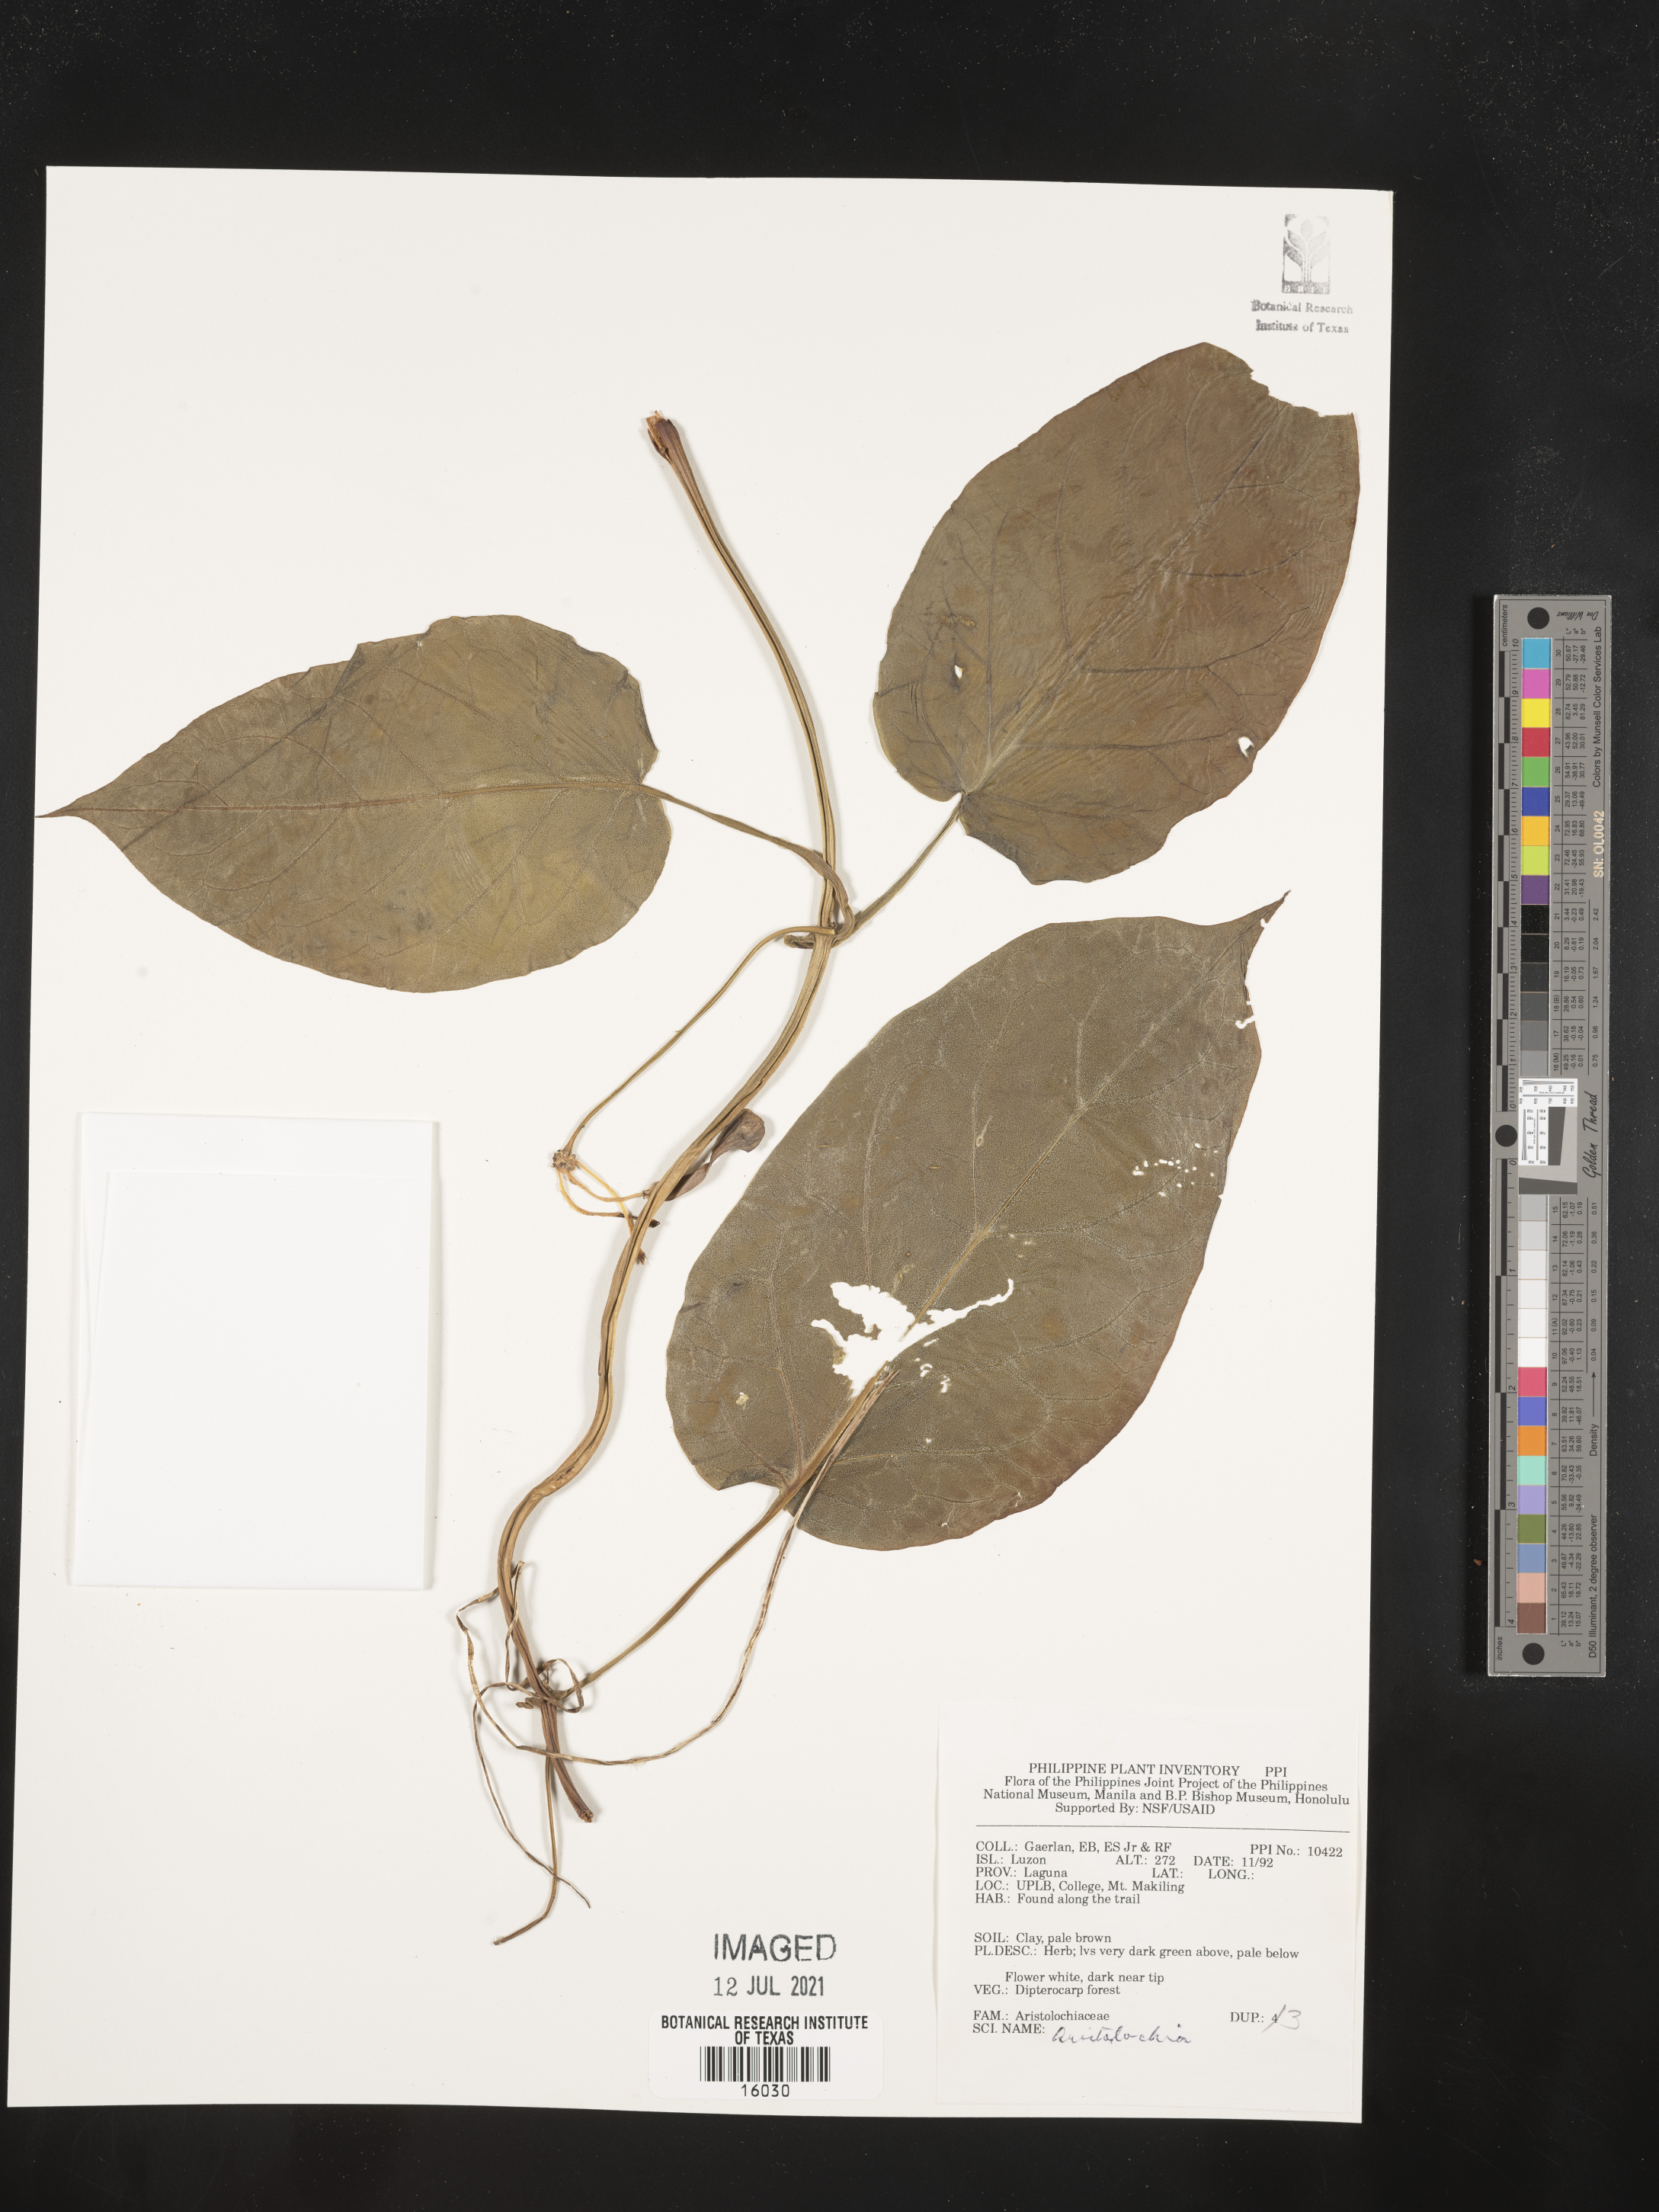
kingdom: Plantae
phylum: Tracheophyta
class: Magnoliopsida
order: Piperales
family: Aristolochiaceae
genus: Aristolochia
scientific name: Aristolochia
